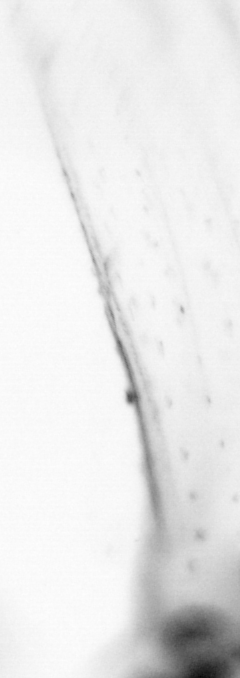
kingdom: Animalia
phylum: Chordata
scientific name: Chordata
